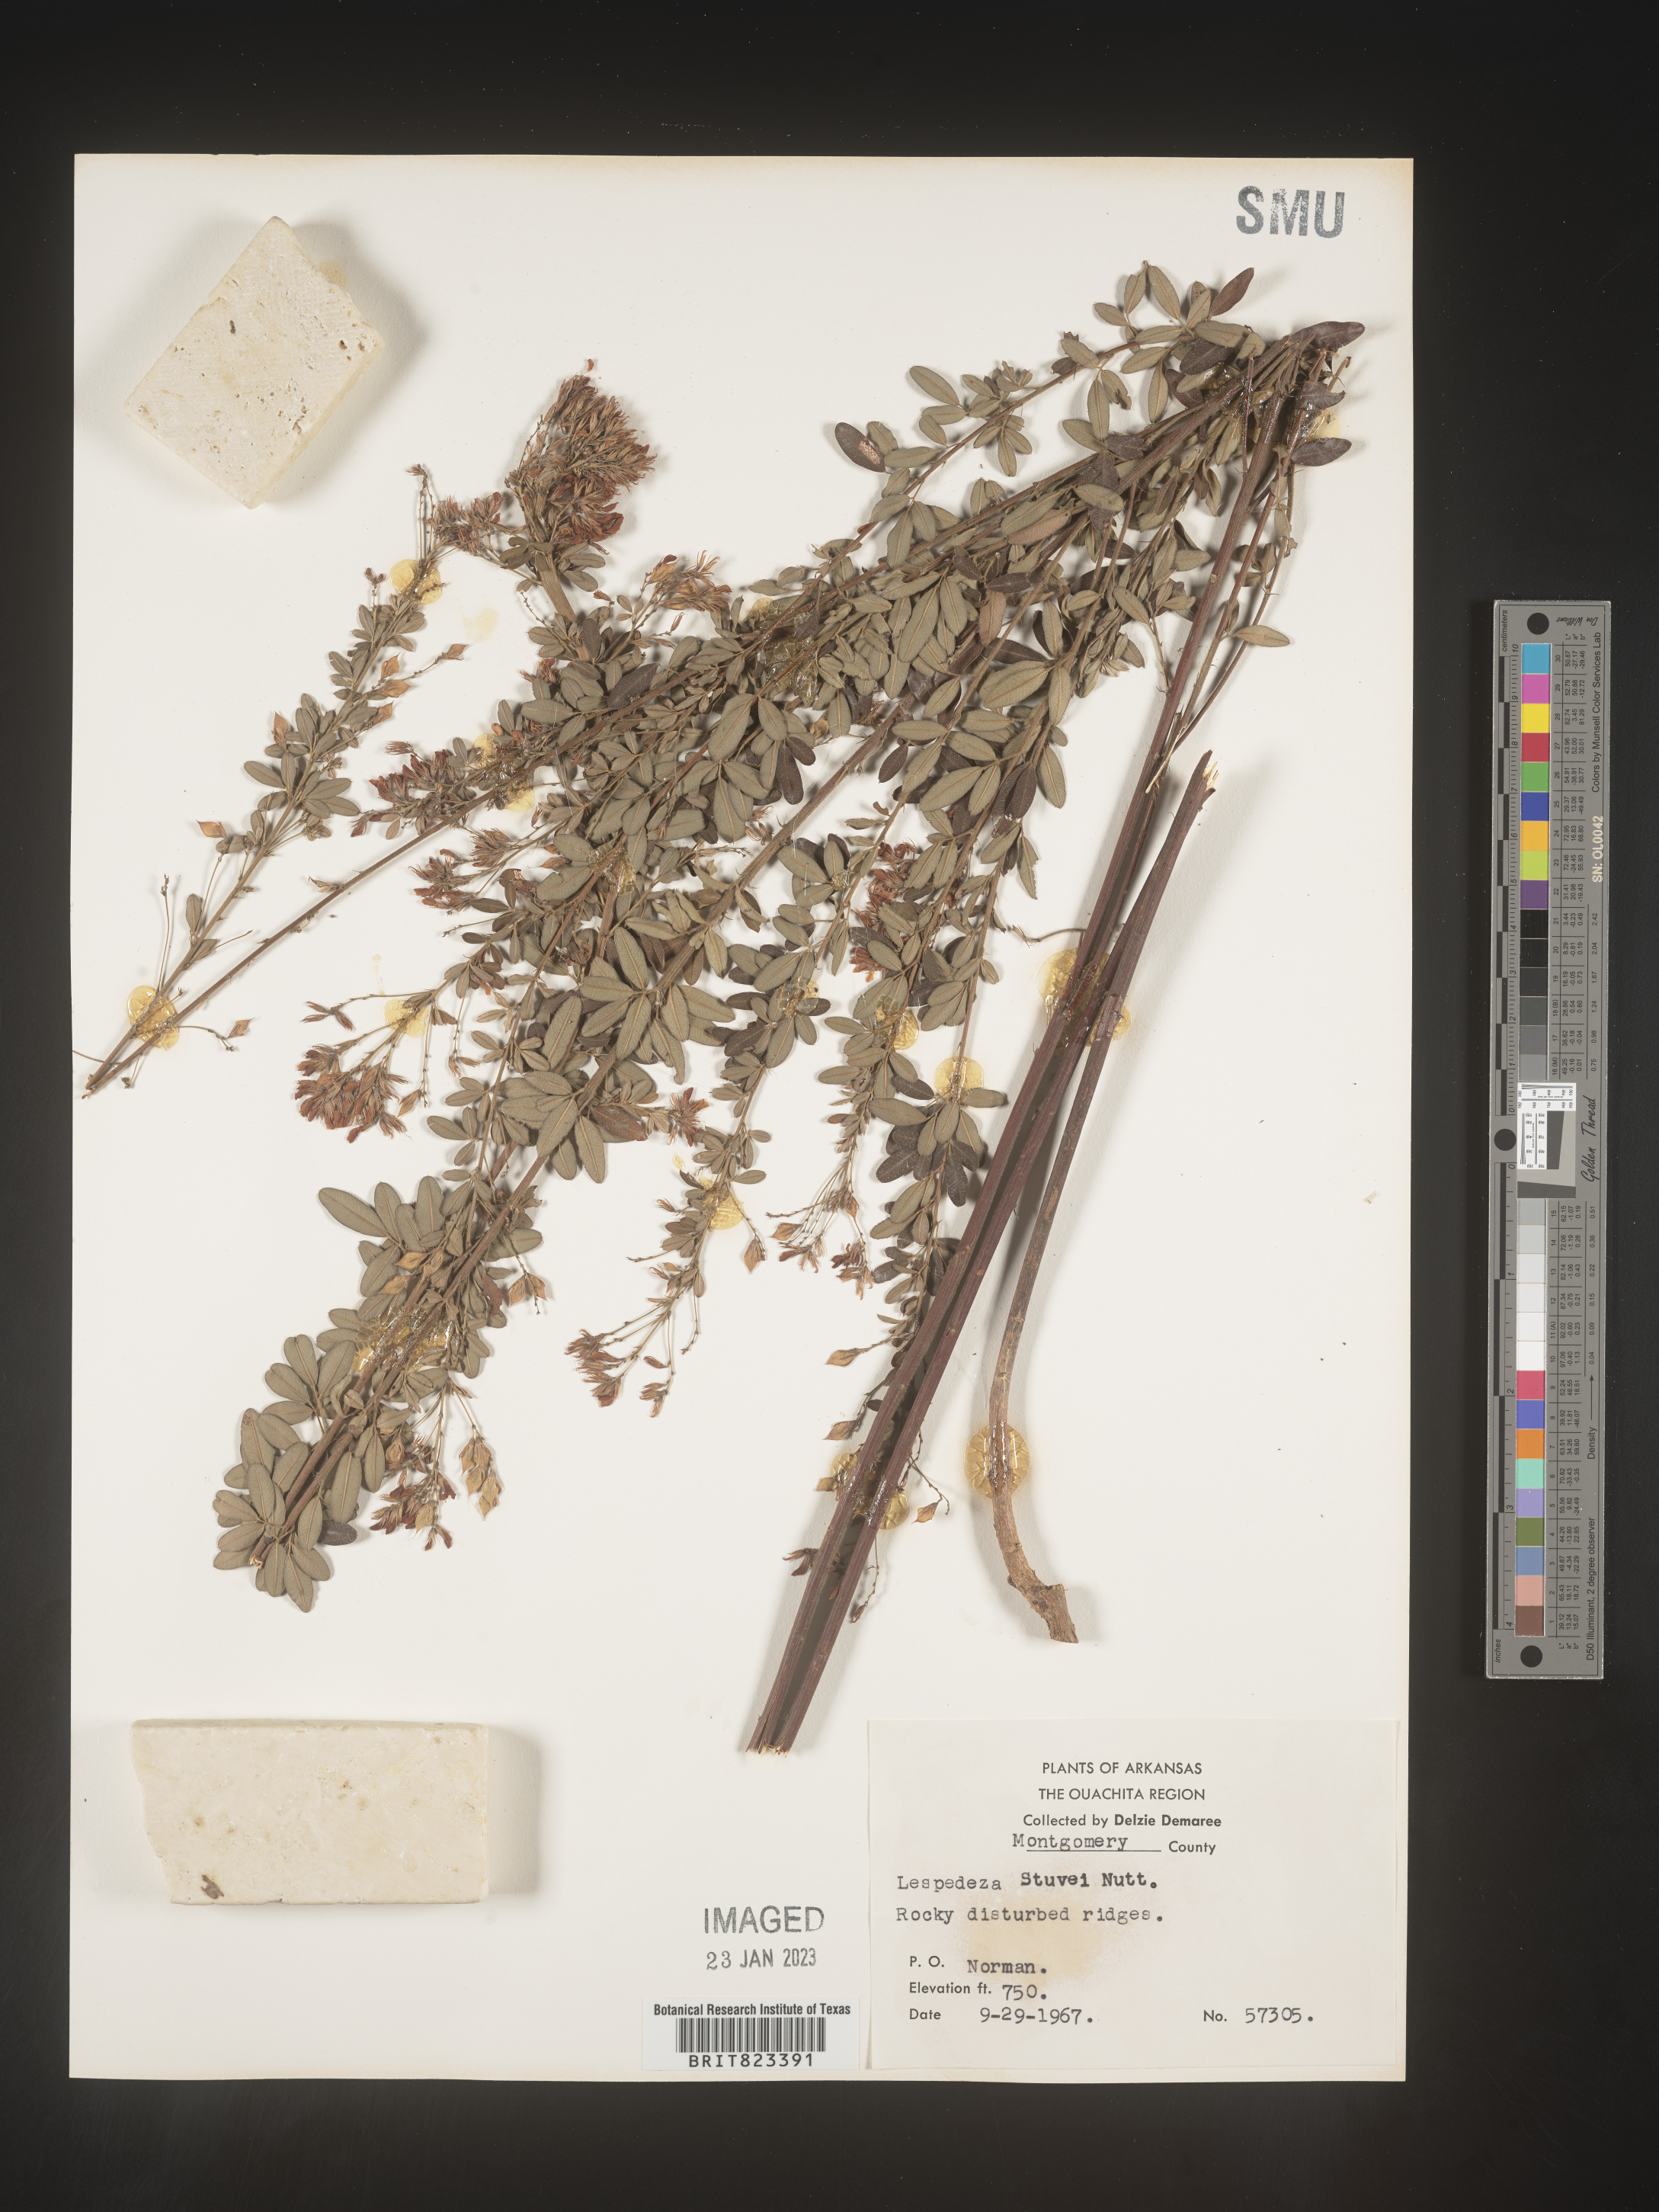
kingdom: Plantae
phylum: Tracheophyta
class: Magnoliopsida
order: Fabales
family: Fabaceae
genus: Lespedeza
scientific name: Lespedeza stuevei
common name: Tall bush-clover
